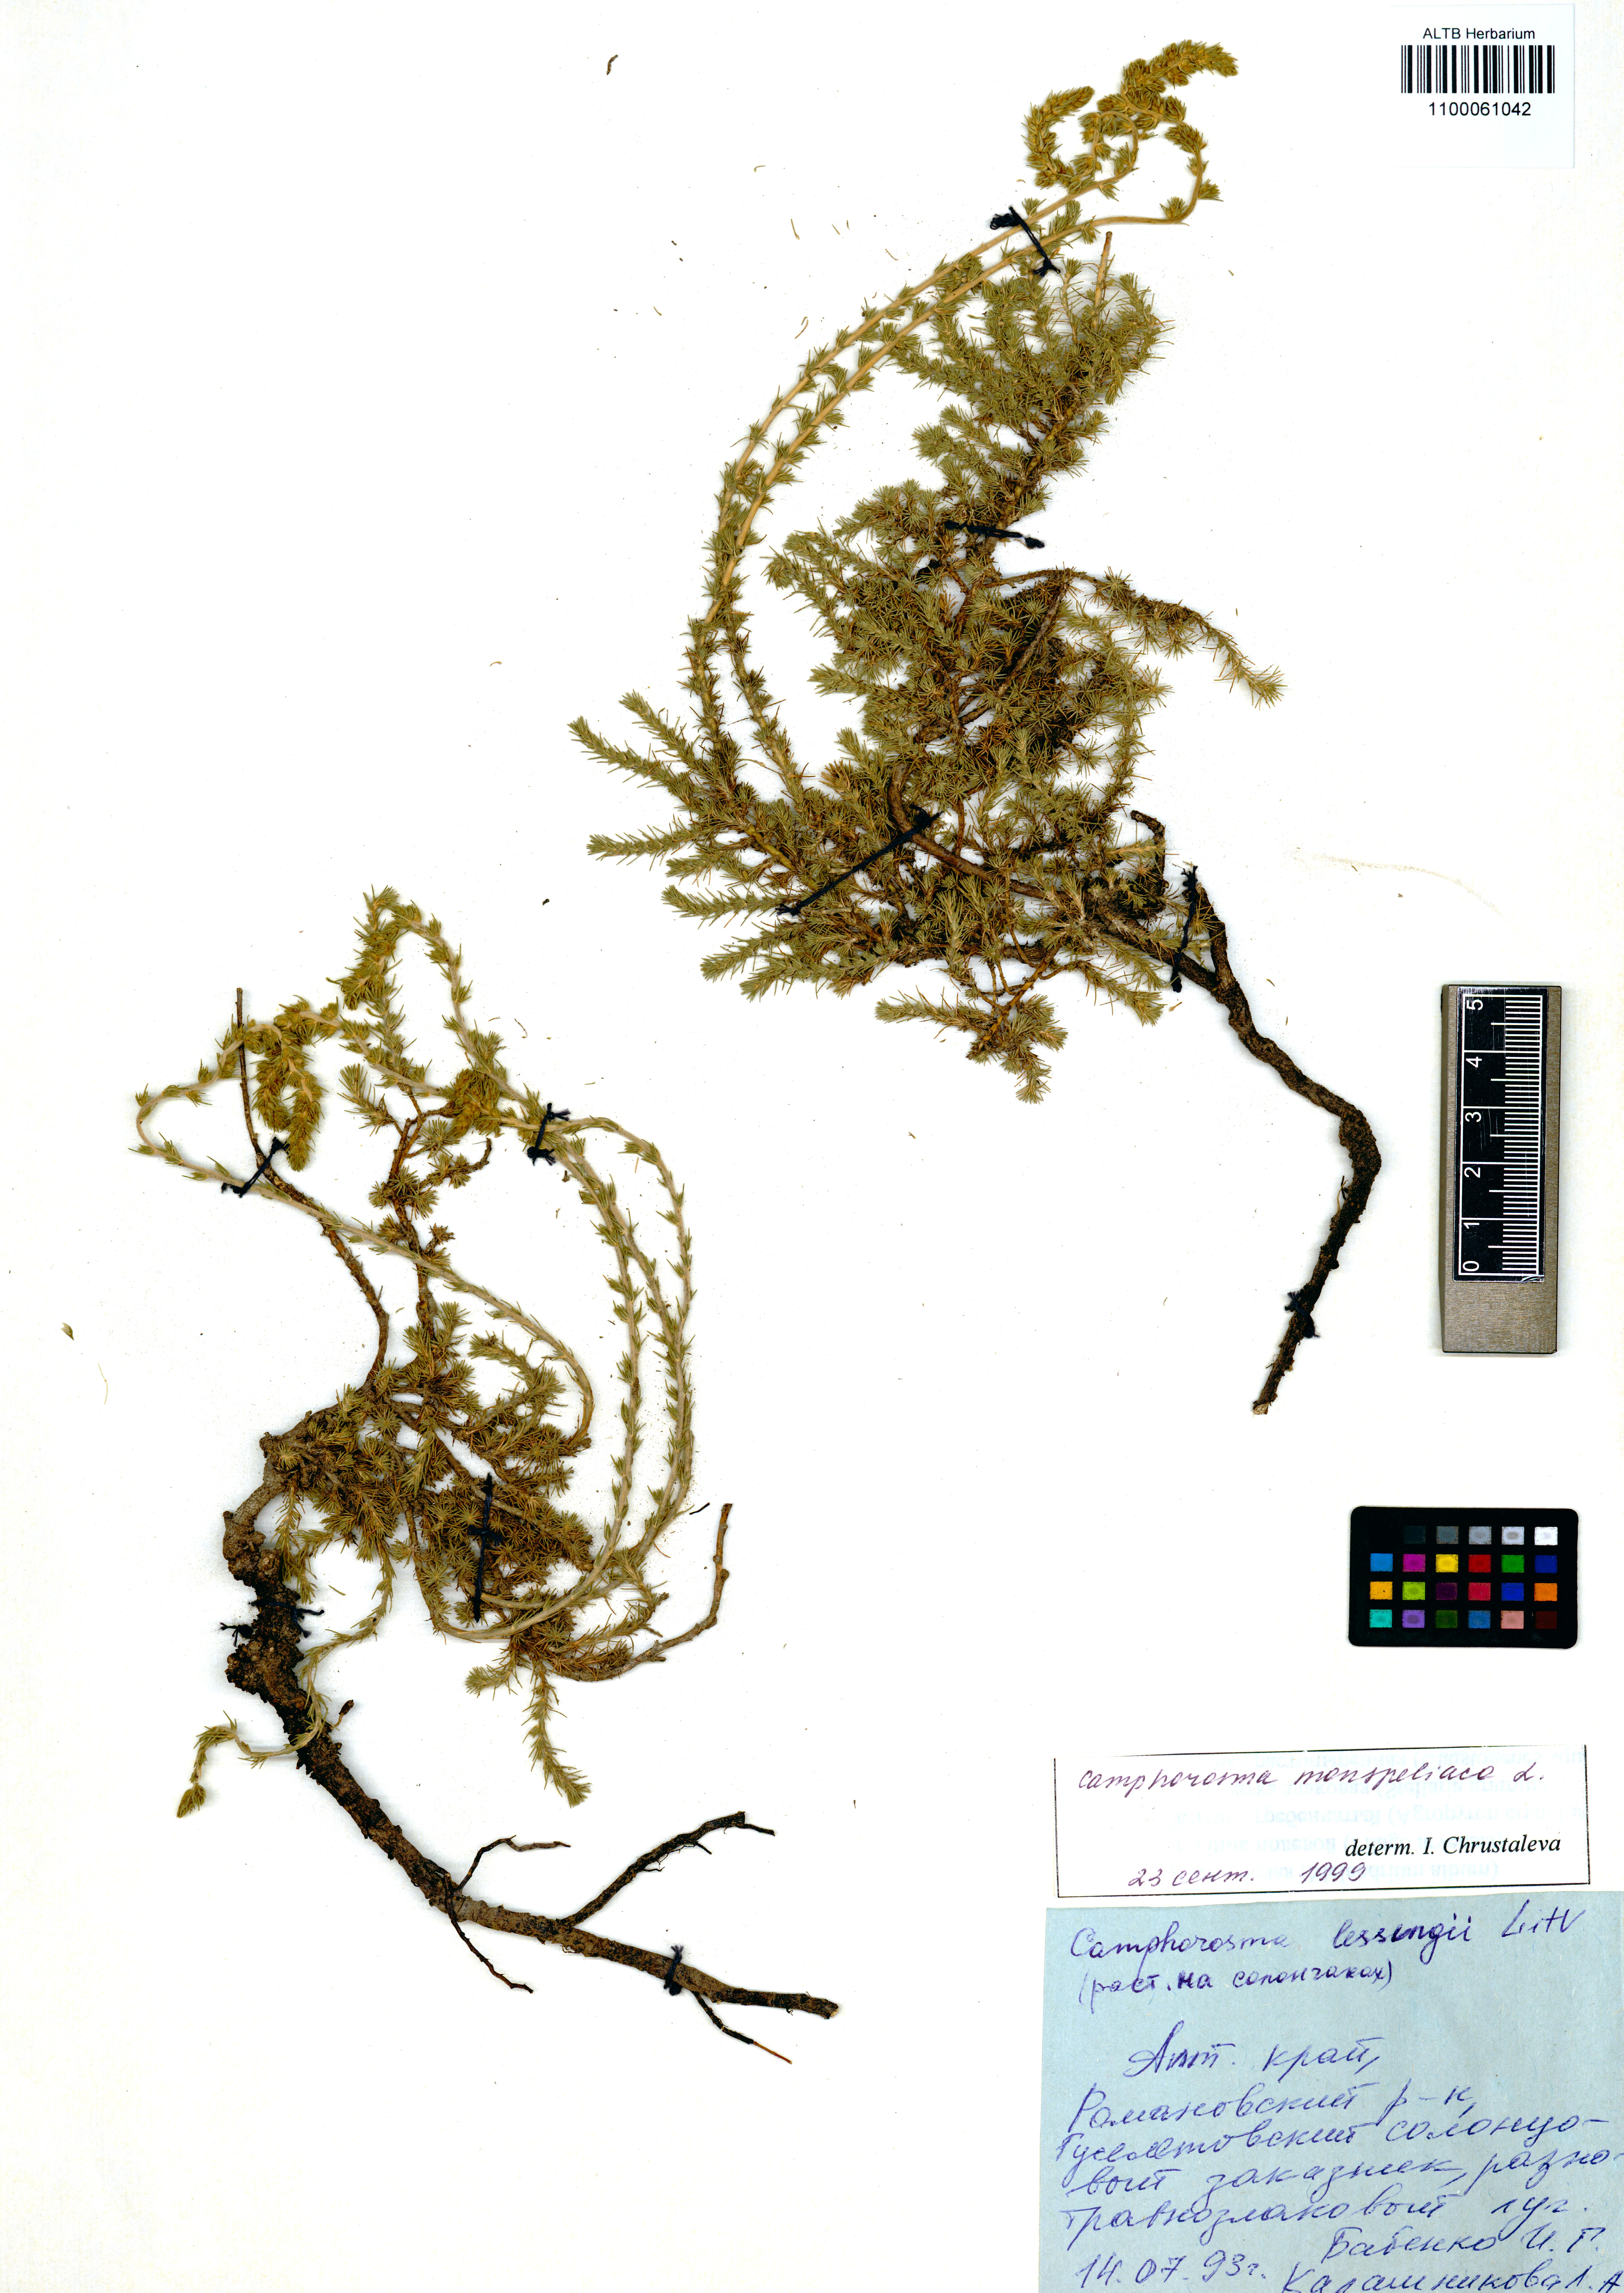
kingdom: Plantae
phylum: Tracheophyta
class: Magnoliopsida
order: Caryophyllales
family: Amaranthaceae
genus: Camphorosma
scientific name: Camphorosma monspeliaca
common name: Camphorfume
